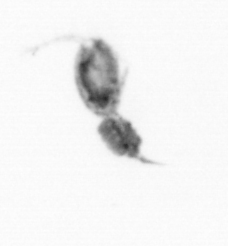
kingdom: Animalia
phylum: Arthropoda
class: Copepoda
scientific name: Copepoda
